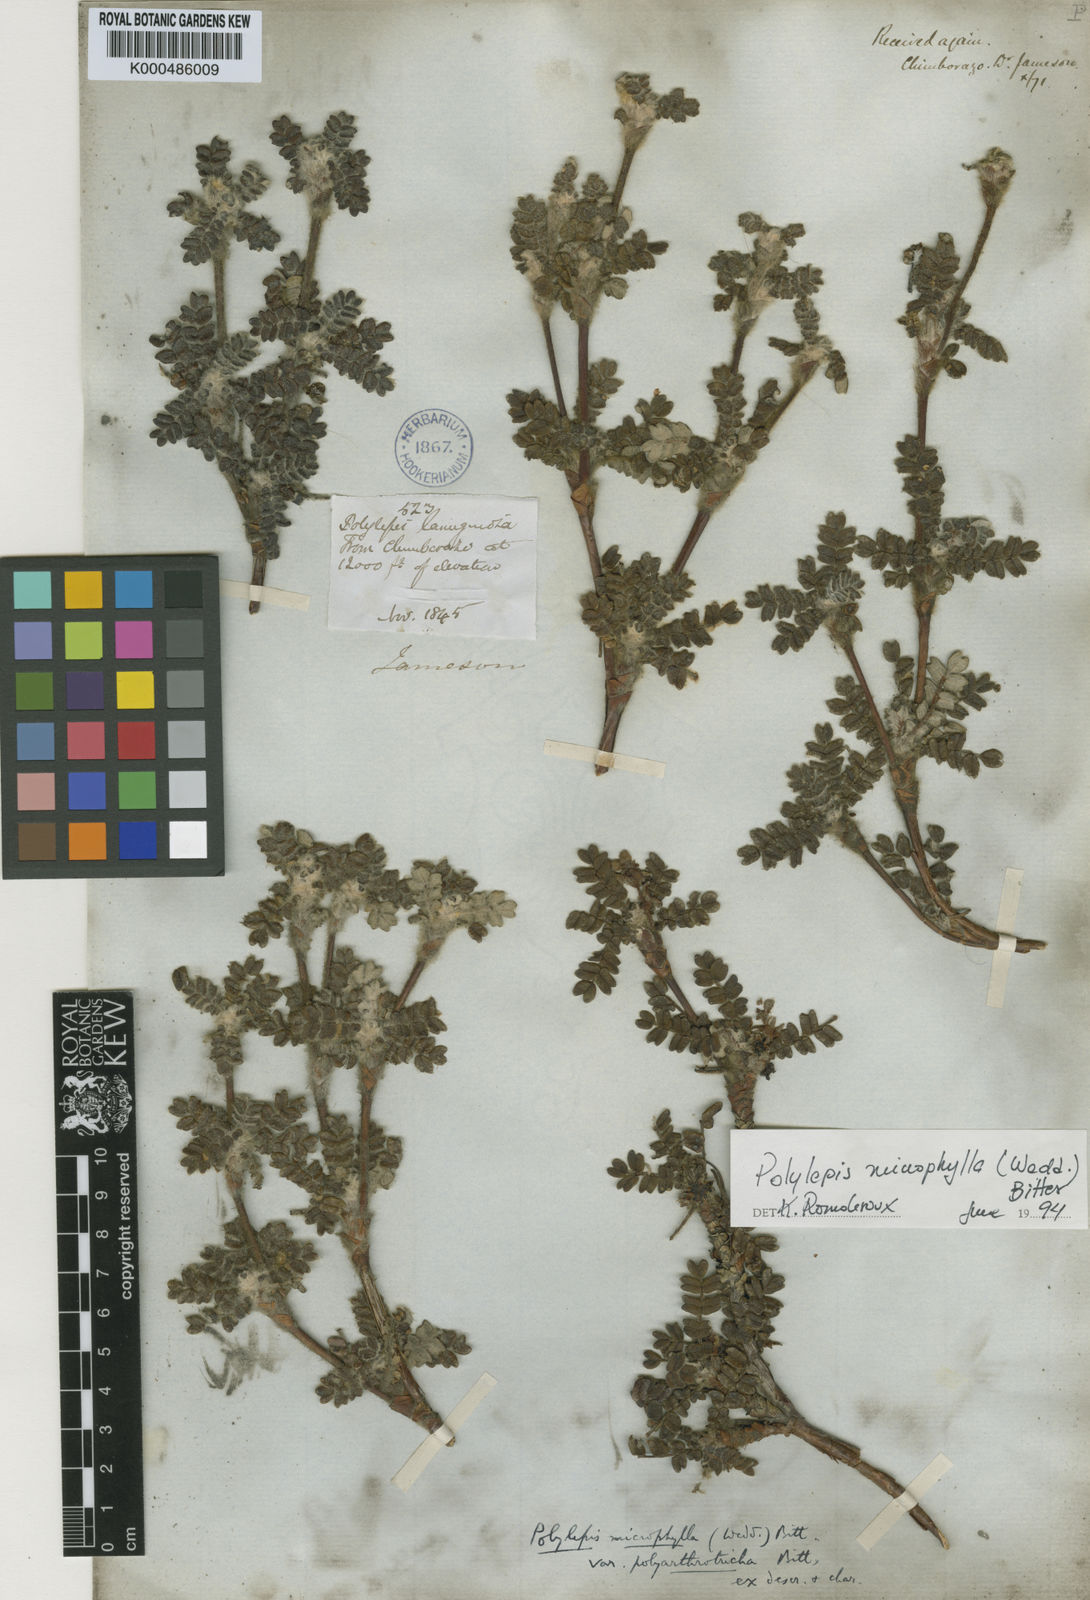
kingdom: Plantae
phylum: Tracheophyta
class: Magnoliopsida
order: Rosales
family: Rosaceae
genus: Polylepis
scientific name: Polylepis microphylla
